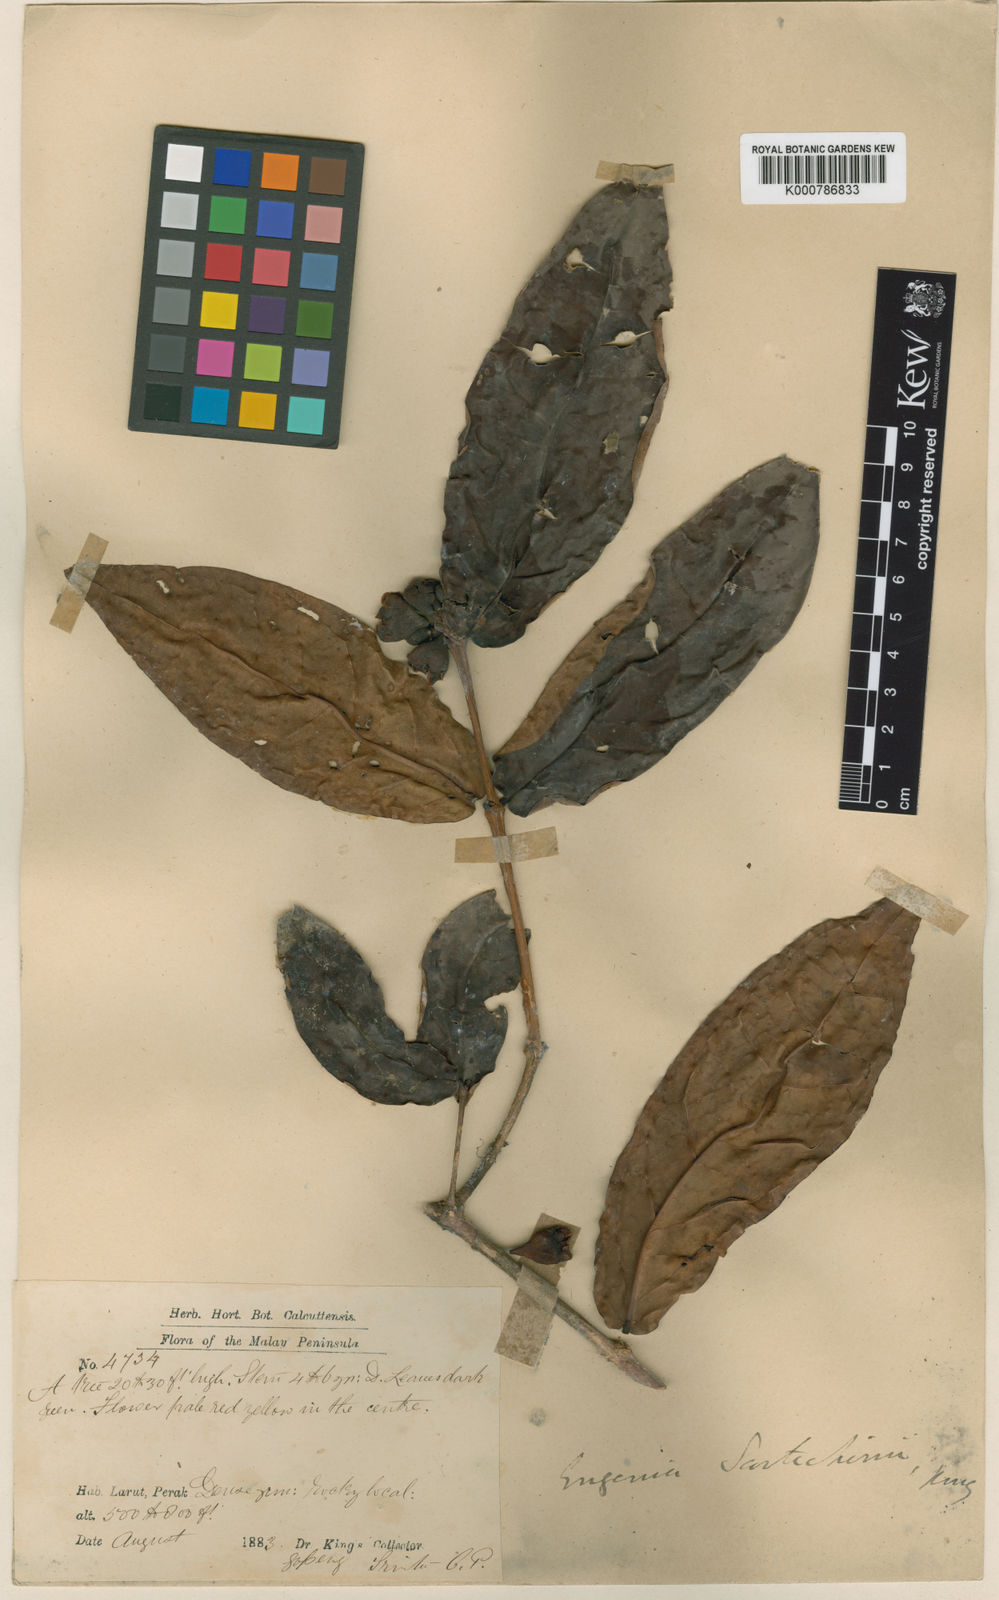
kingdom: Plantae
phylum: Tracheophyta
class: Magnoliopsida
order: Myrtales
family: Myrtaceae
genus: Syzygium
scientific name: Syzygium scortechinii
